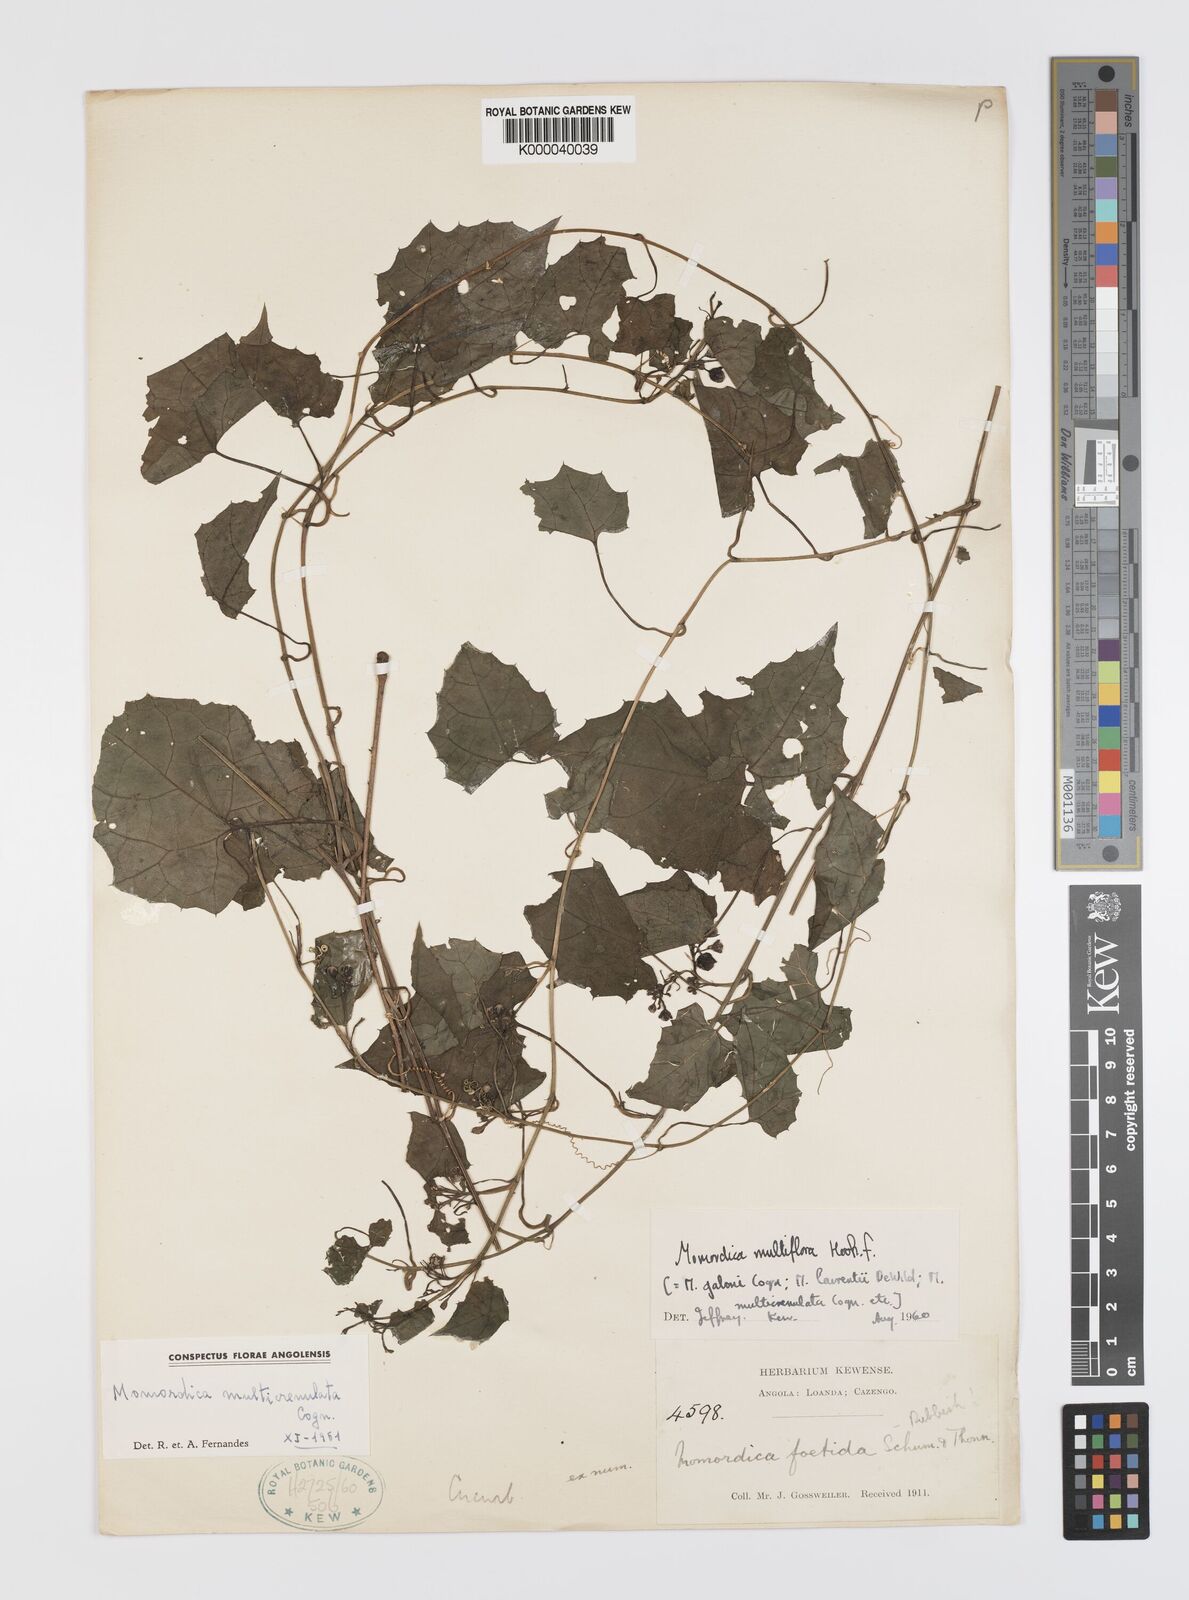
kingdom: Plantae
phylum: Tracheophyta
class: Magnoliopsida
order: Cucurbitales
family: Cucurbitaceae
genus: Momordica
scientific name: Momordica multiflora
